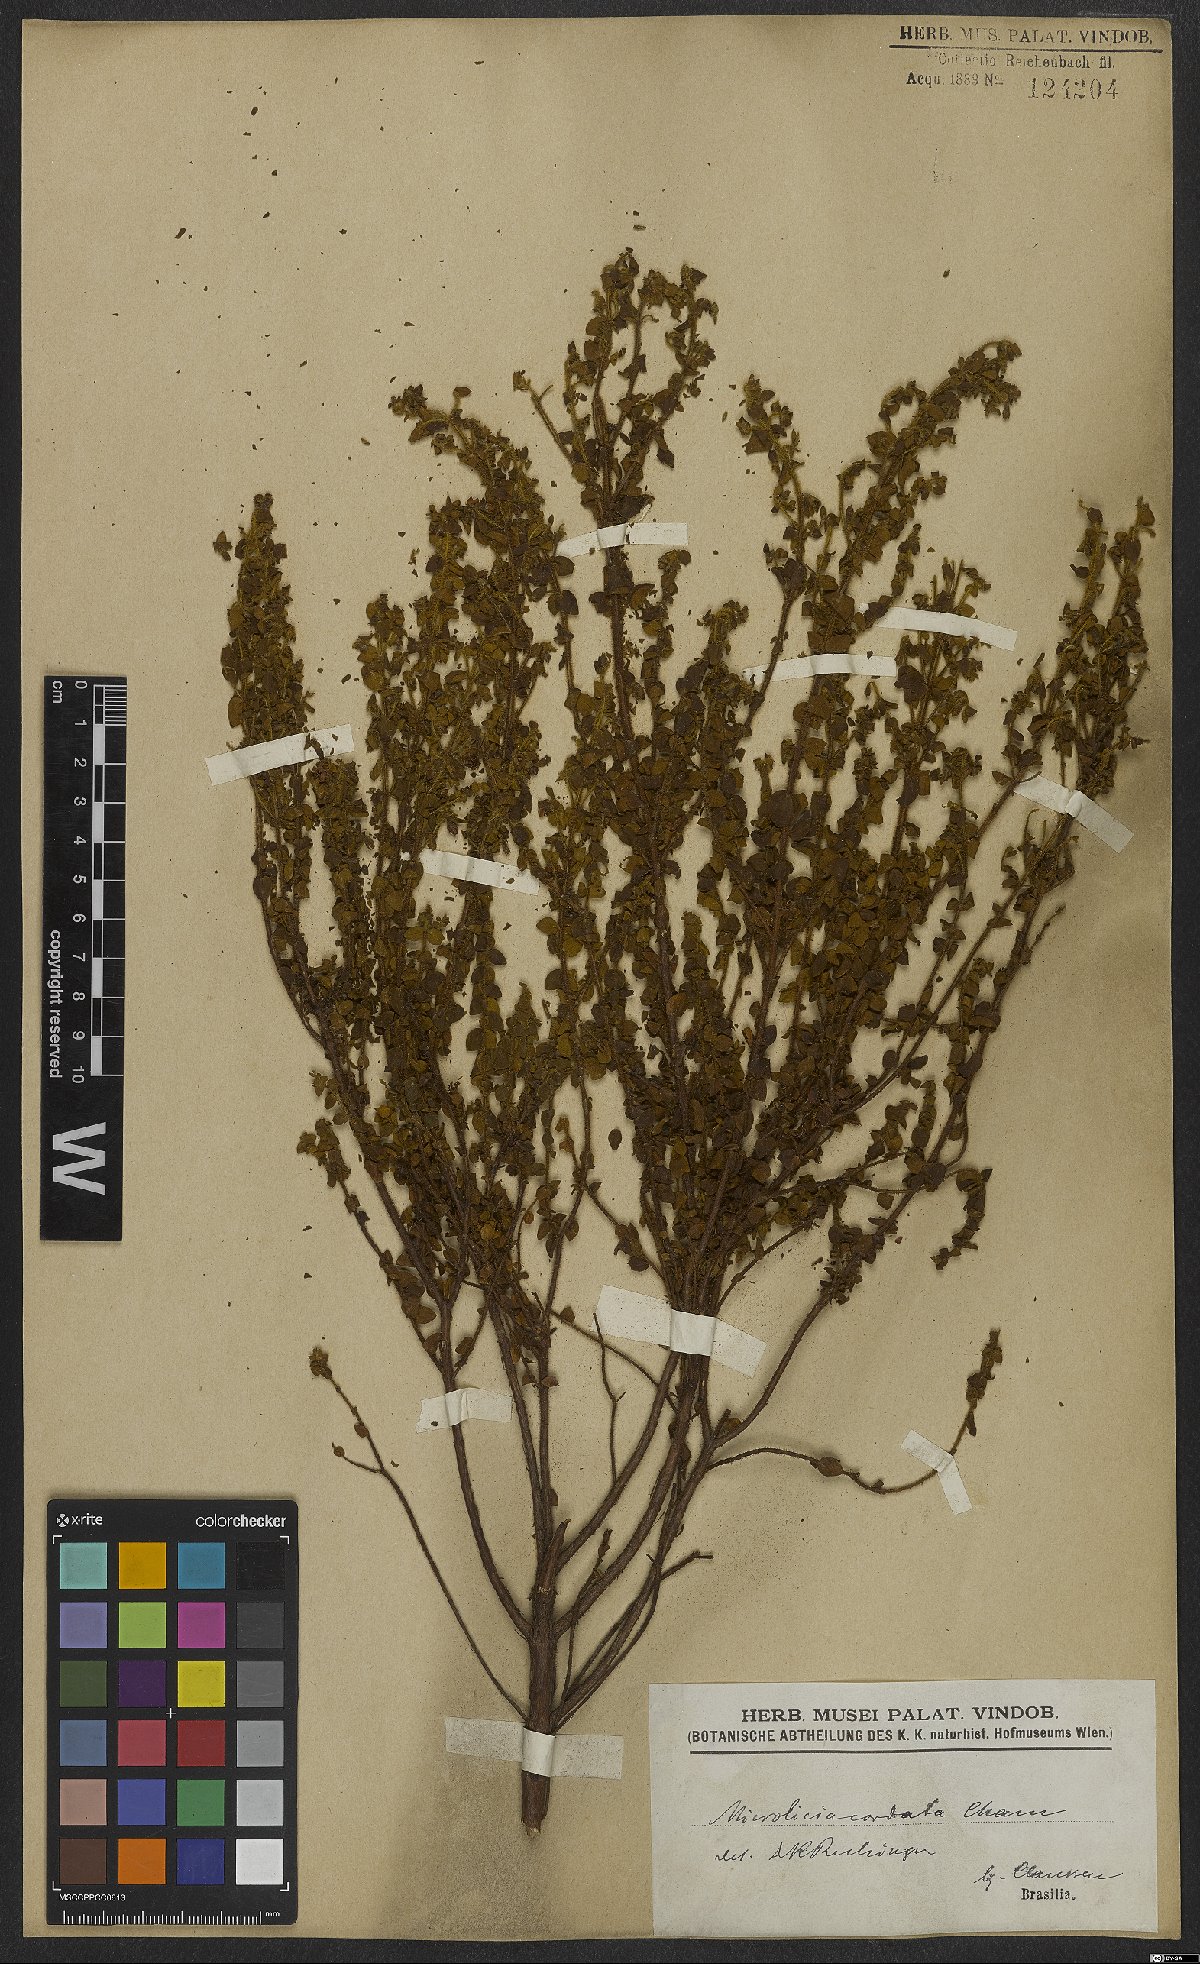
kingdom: Plantae
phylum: Tracheophyta
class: Magnoliopsida
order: Myrtales
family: Melastomataceae
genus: Microlicia
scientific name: Microlicia cordata
